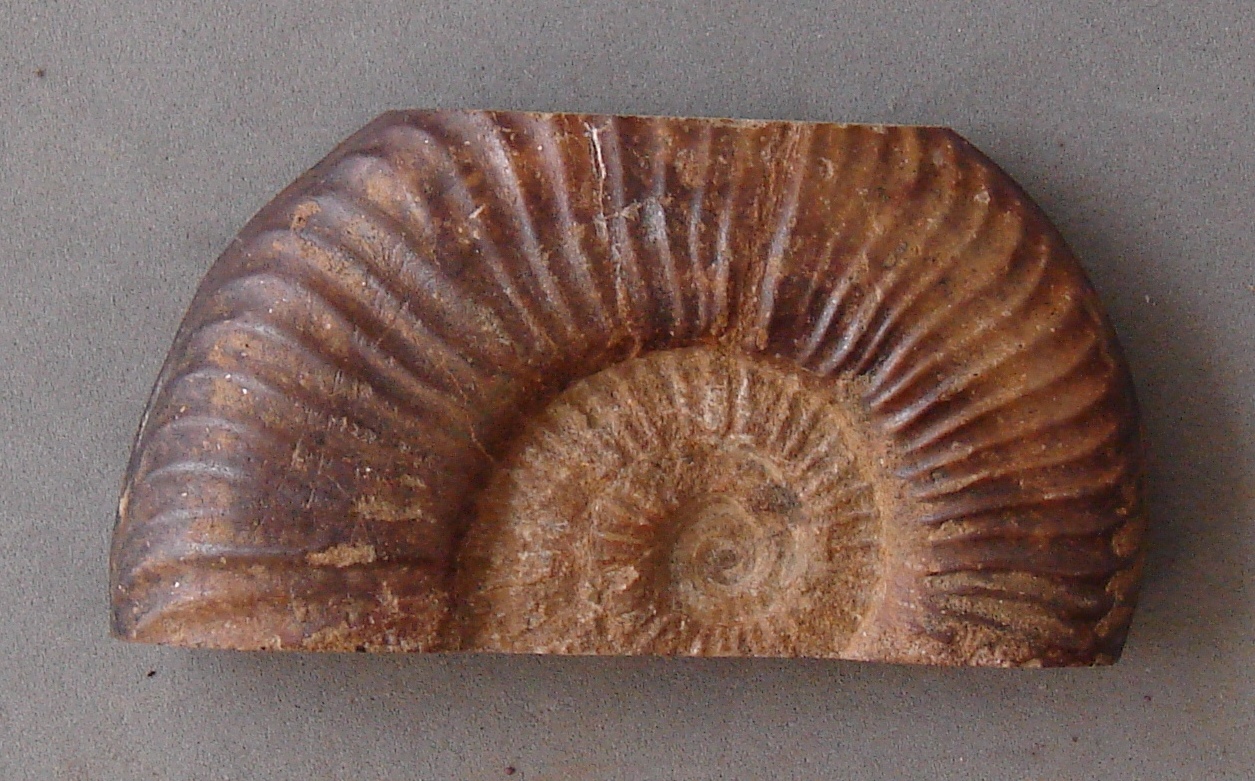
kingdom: Animalia
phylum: Mollusca
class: Cephalopoda
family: Hildoceratidae
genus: Dumortieria
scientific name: Dumortieria radians
